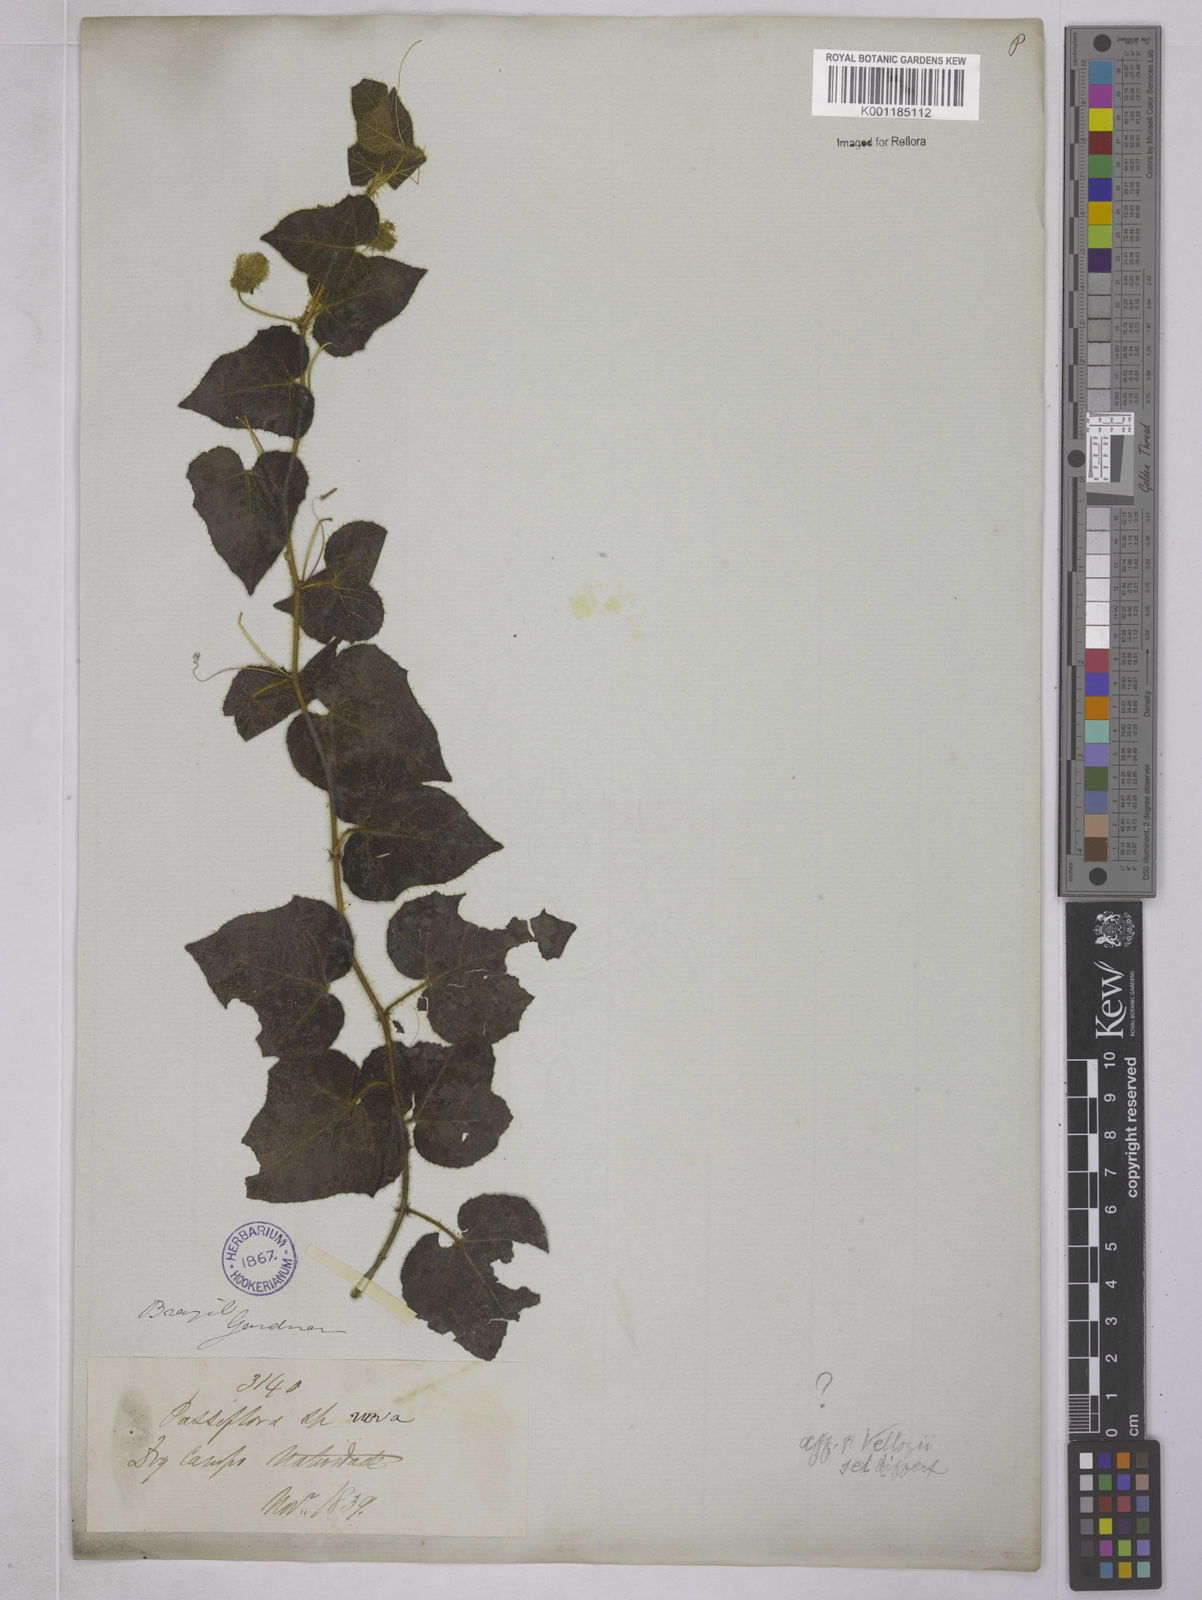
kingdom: Plantae
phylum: Tracheophyta
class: Magnoliopsida
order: Malpighiales
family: Passifloraceae
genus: Passiflora
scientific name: Passiflora
